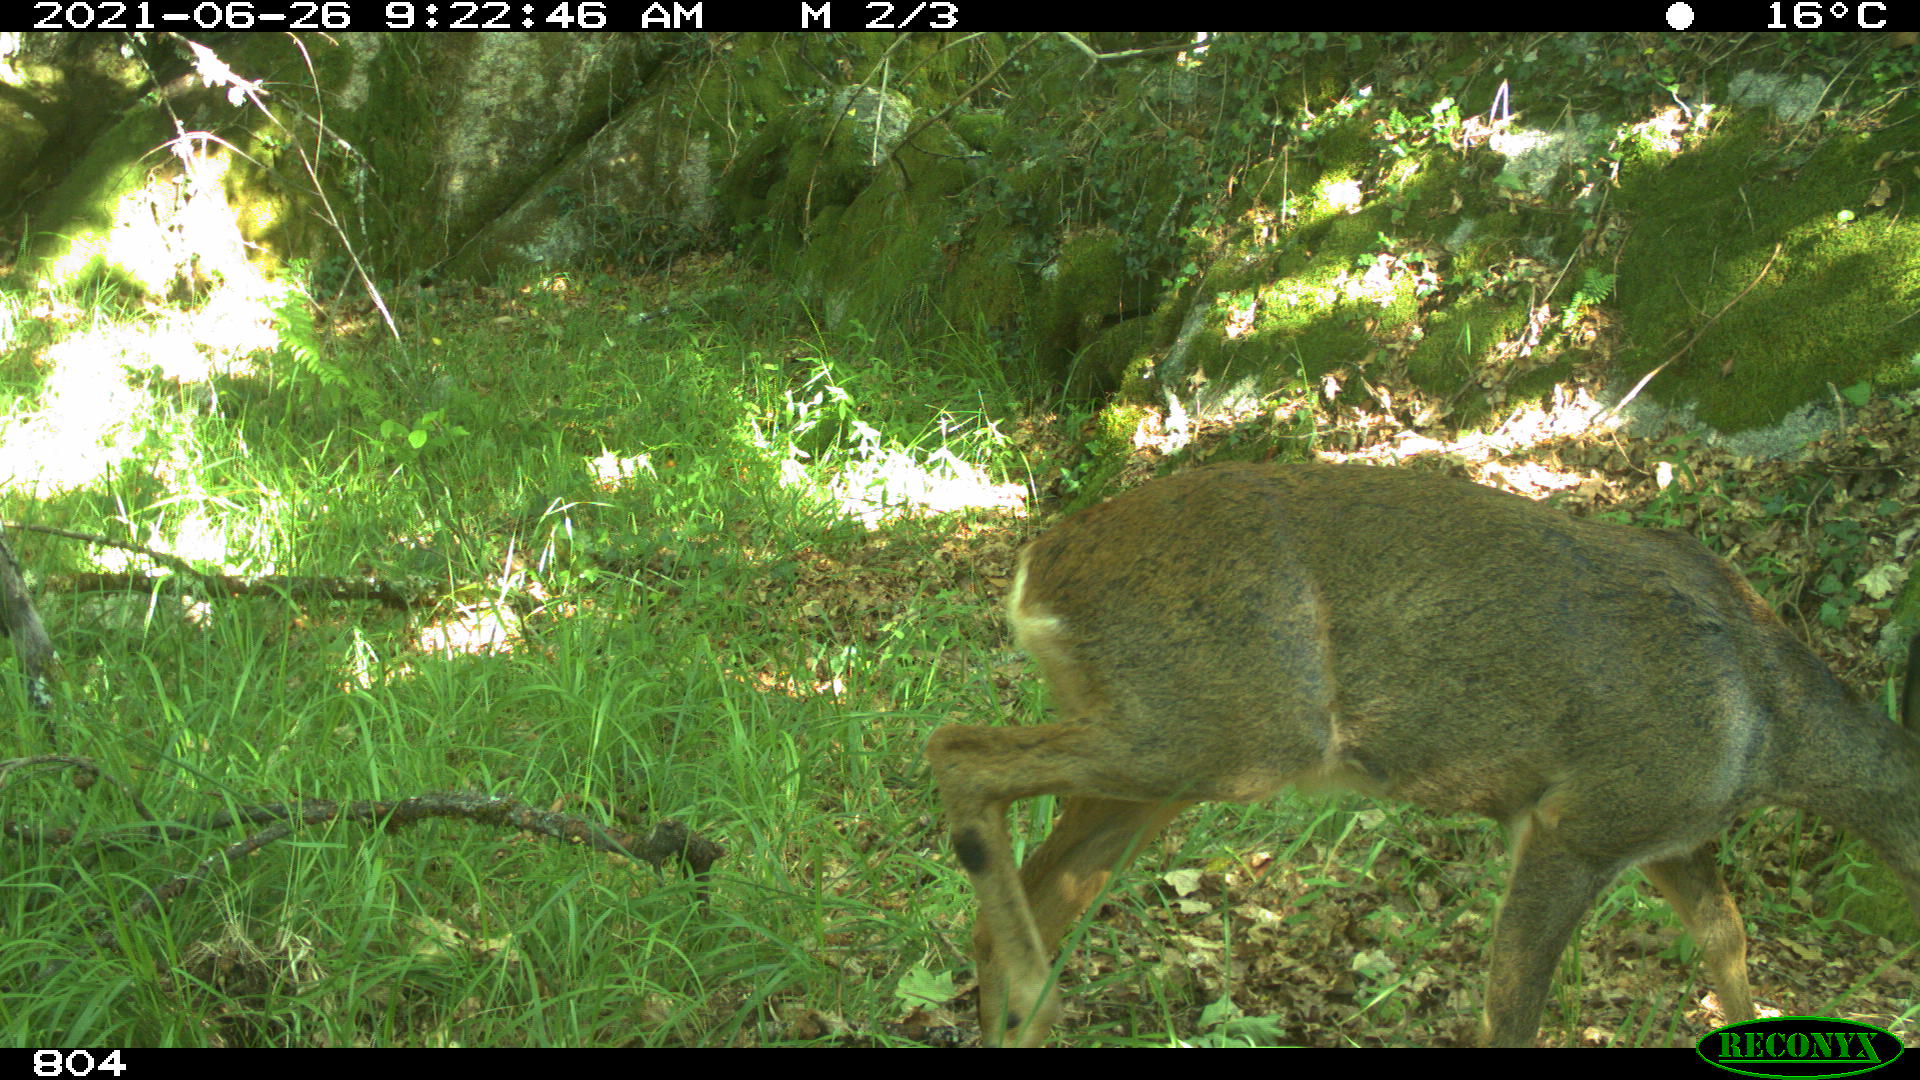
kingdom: Animalia
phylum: Chordata
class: Mammalia
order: Artiodactyla
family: Cervidae
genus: Capreolus
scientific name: Capreolus capreolus
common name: Western roe deer
